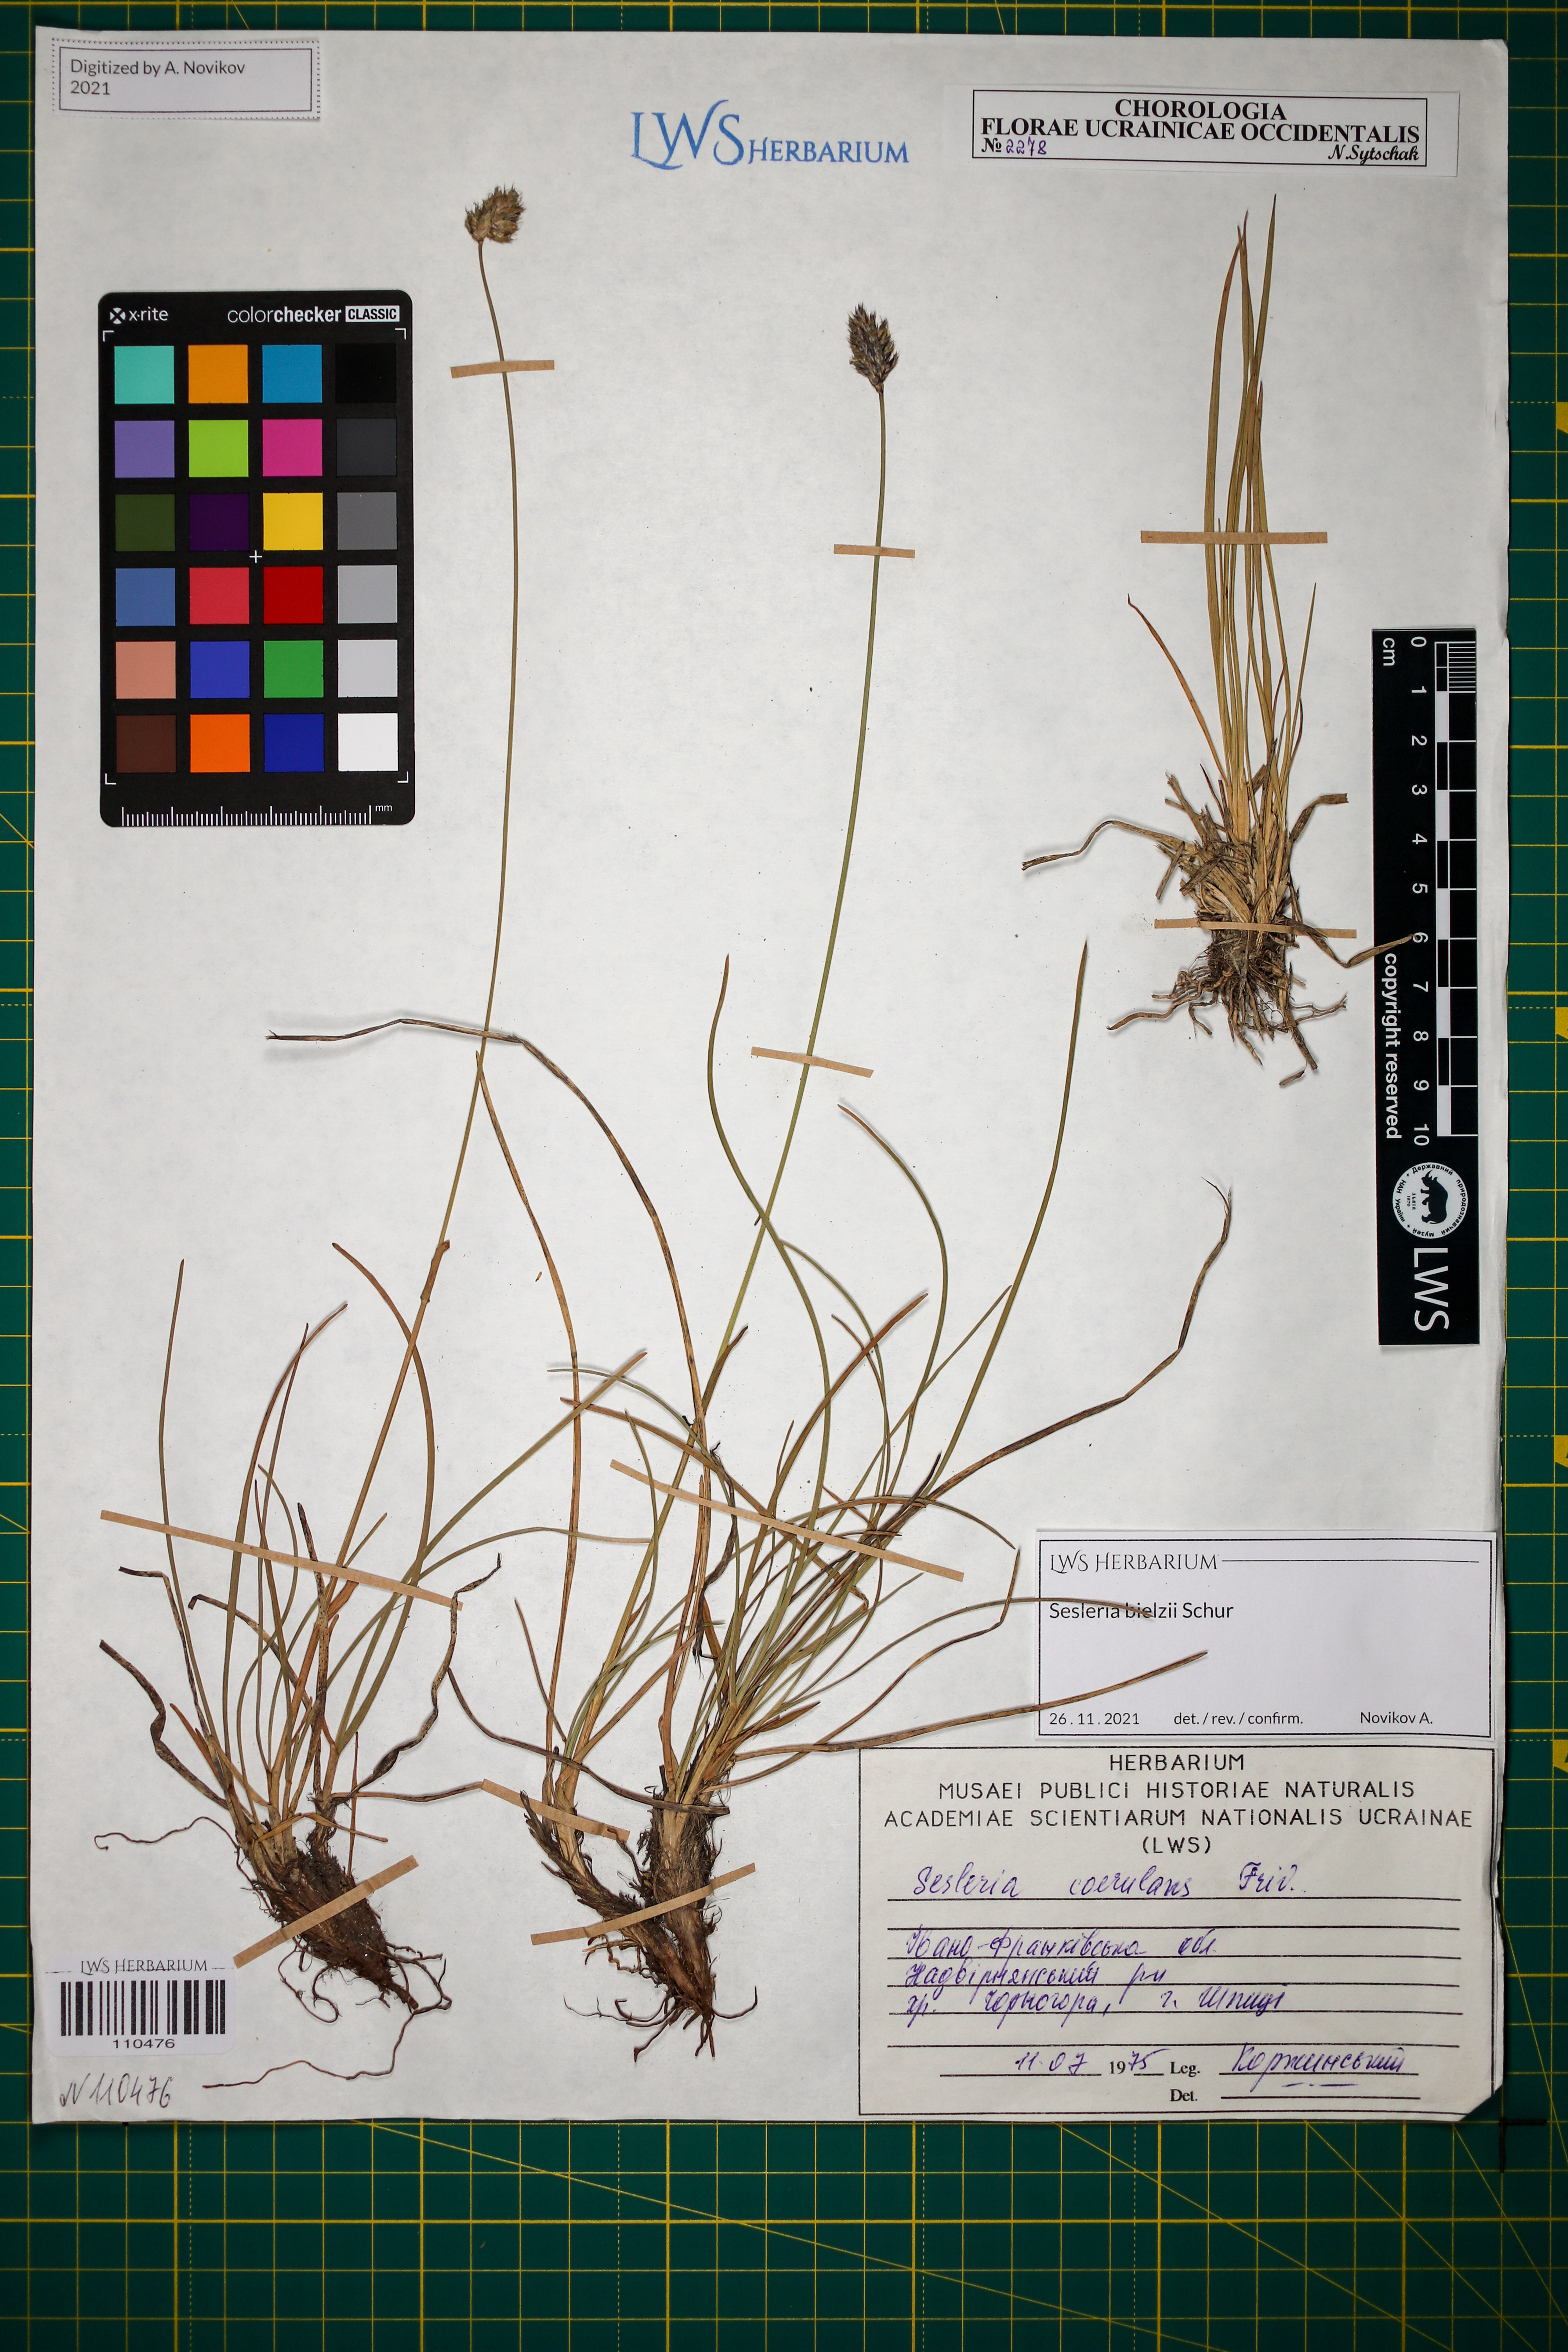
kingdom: Plantae
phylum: Tracheophyta
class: Liliopsida
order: Poales
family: Poaceae
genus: Sesleria
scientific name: Sesleria bielzii
